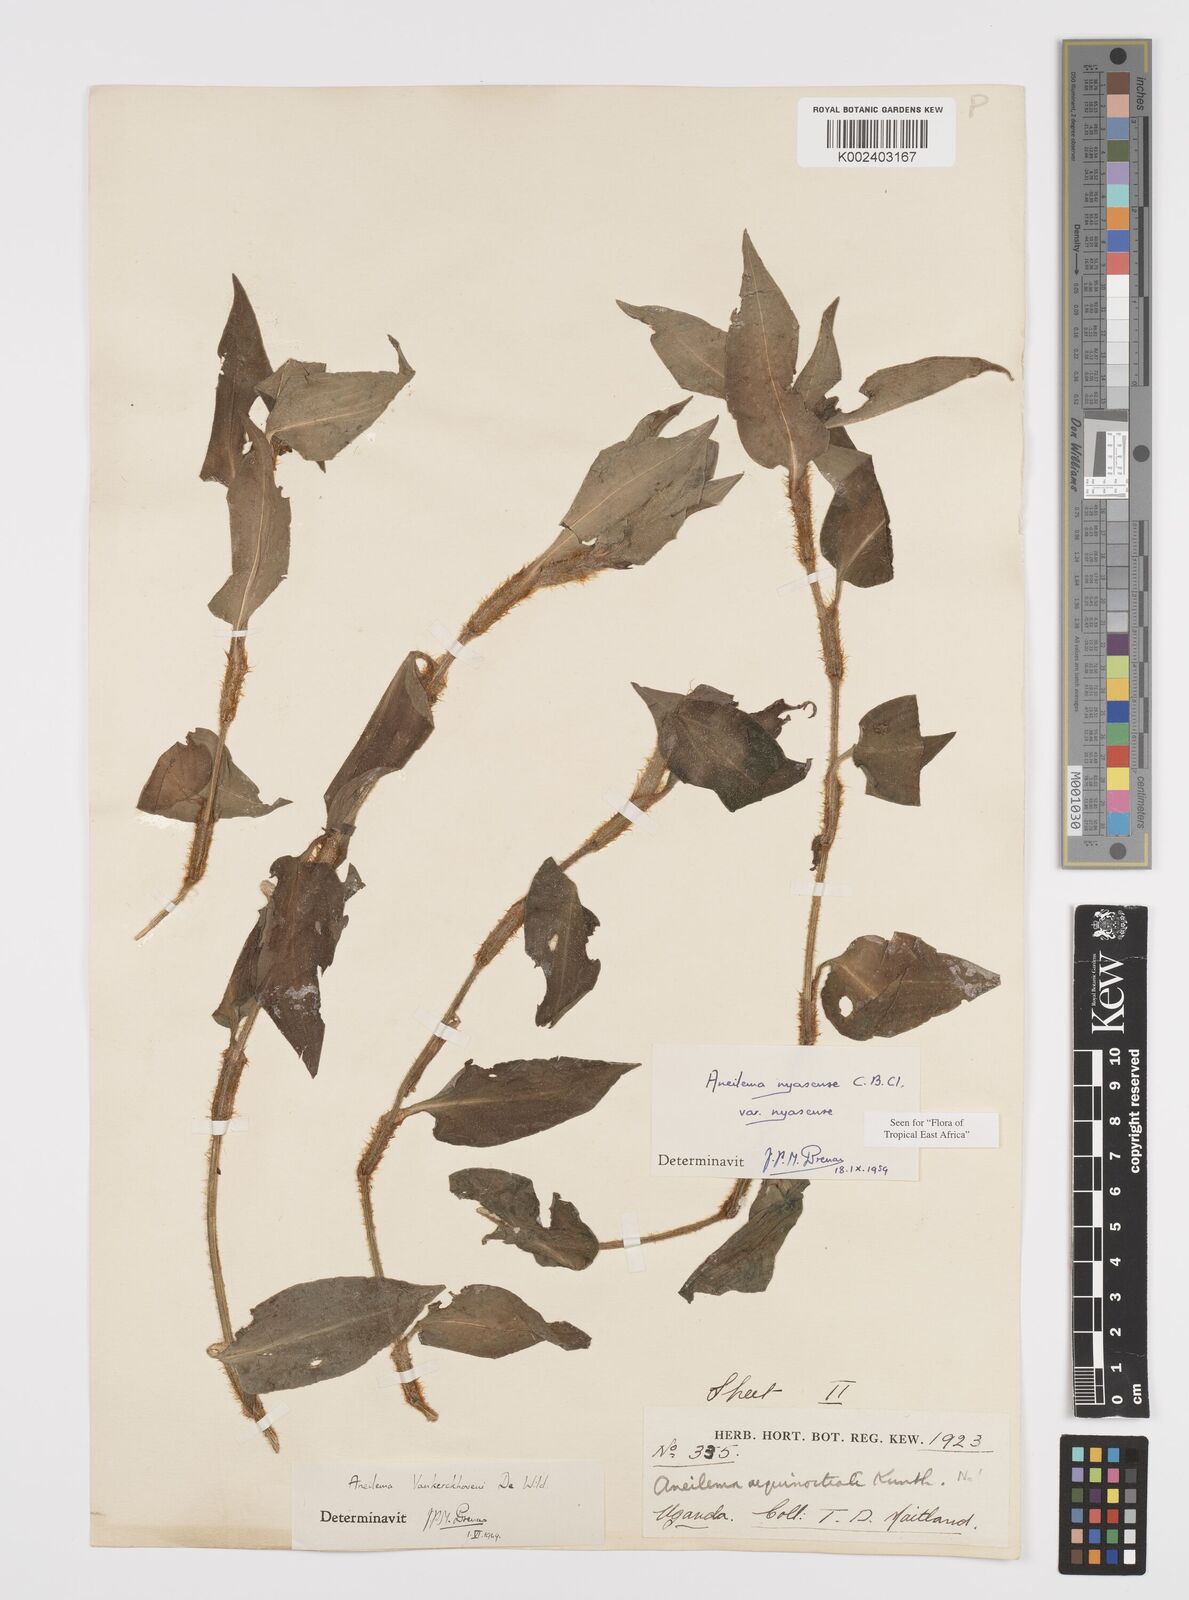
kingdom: Plantae
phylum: Tracheophyta
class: Liliopsida
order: Commelinales
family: Commelinaceae
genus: Aneilema
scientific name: Aneilema nyasense
